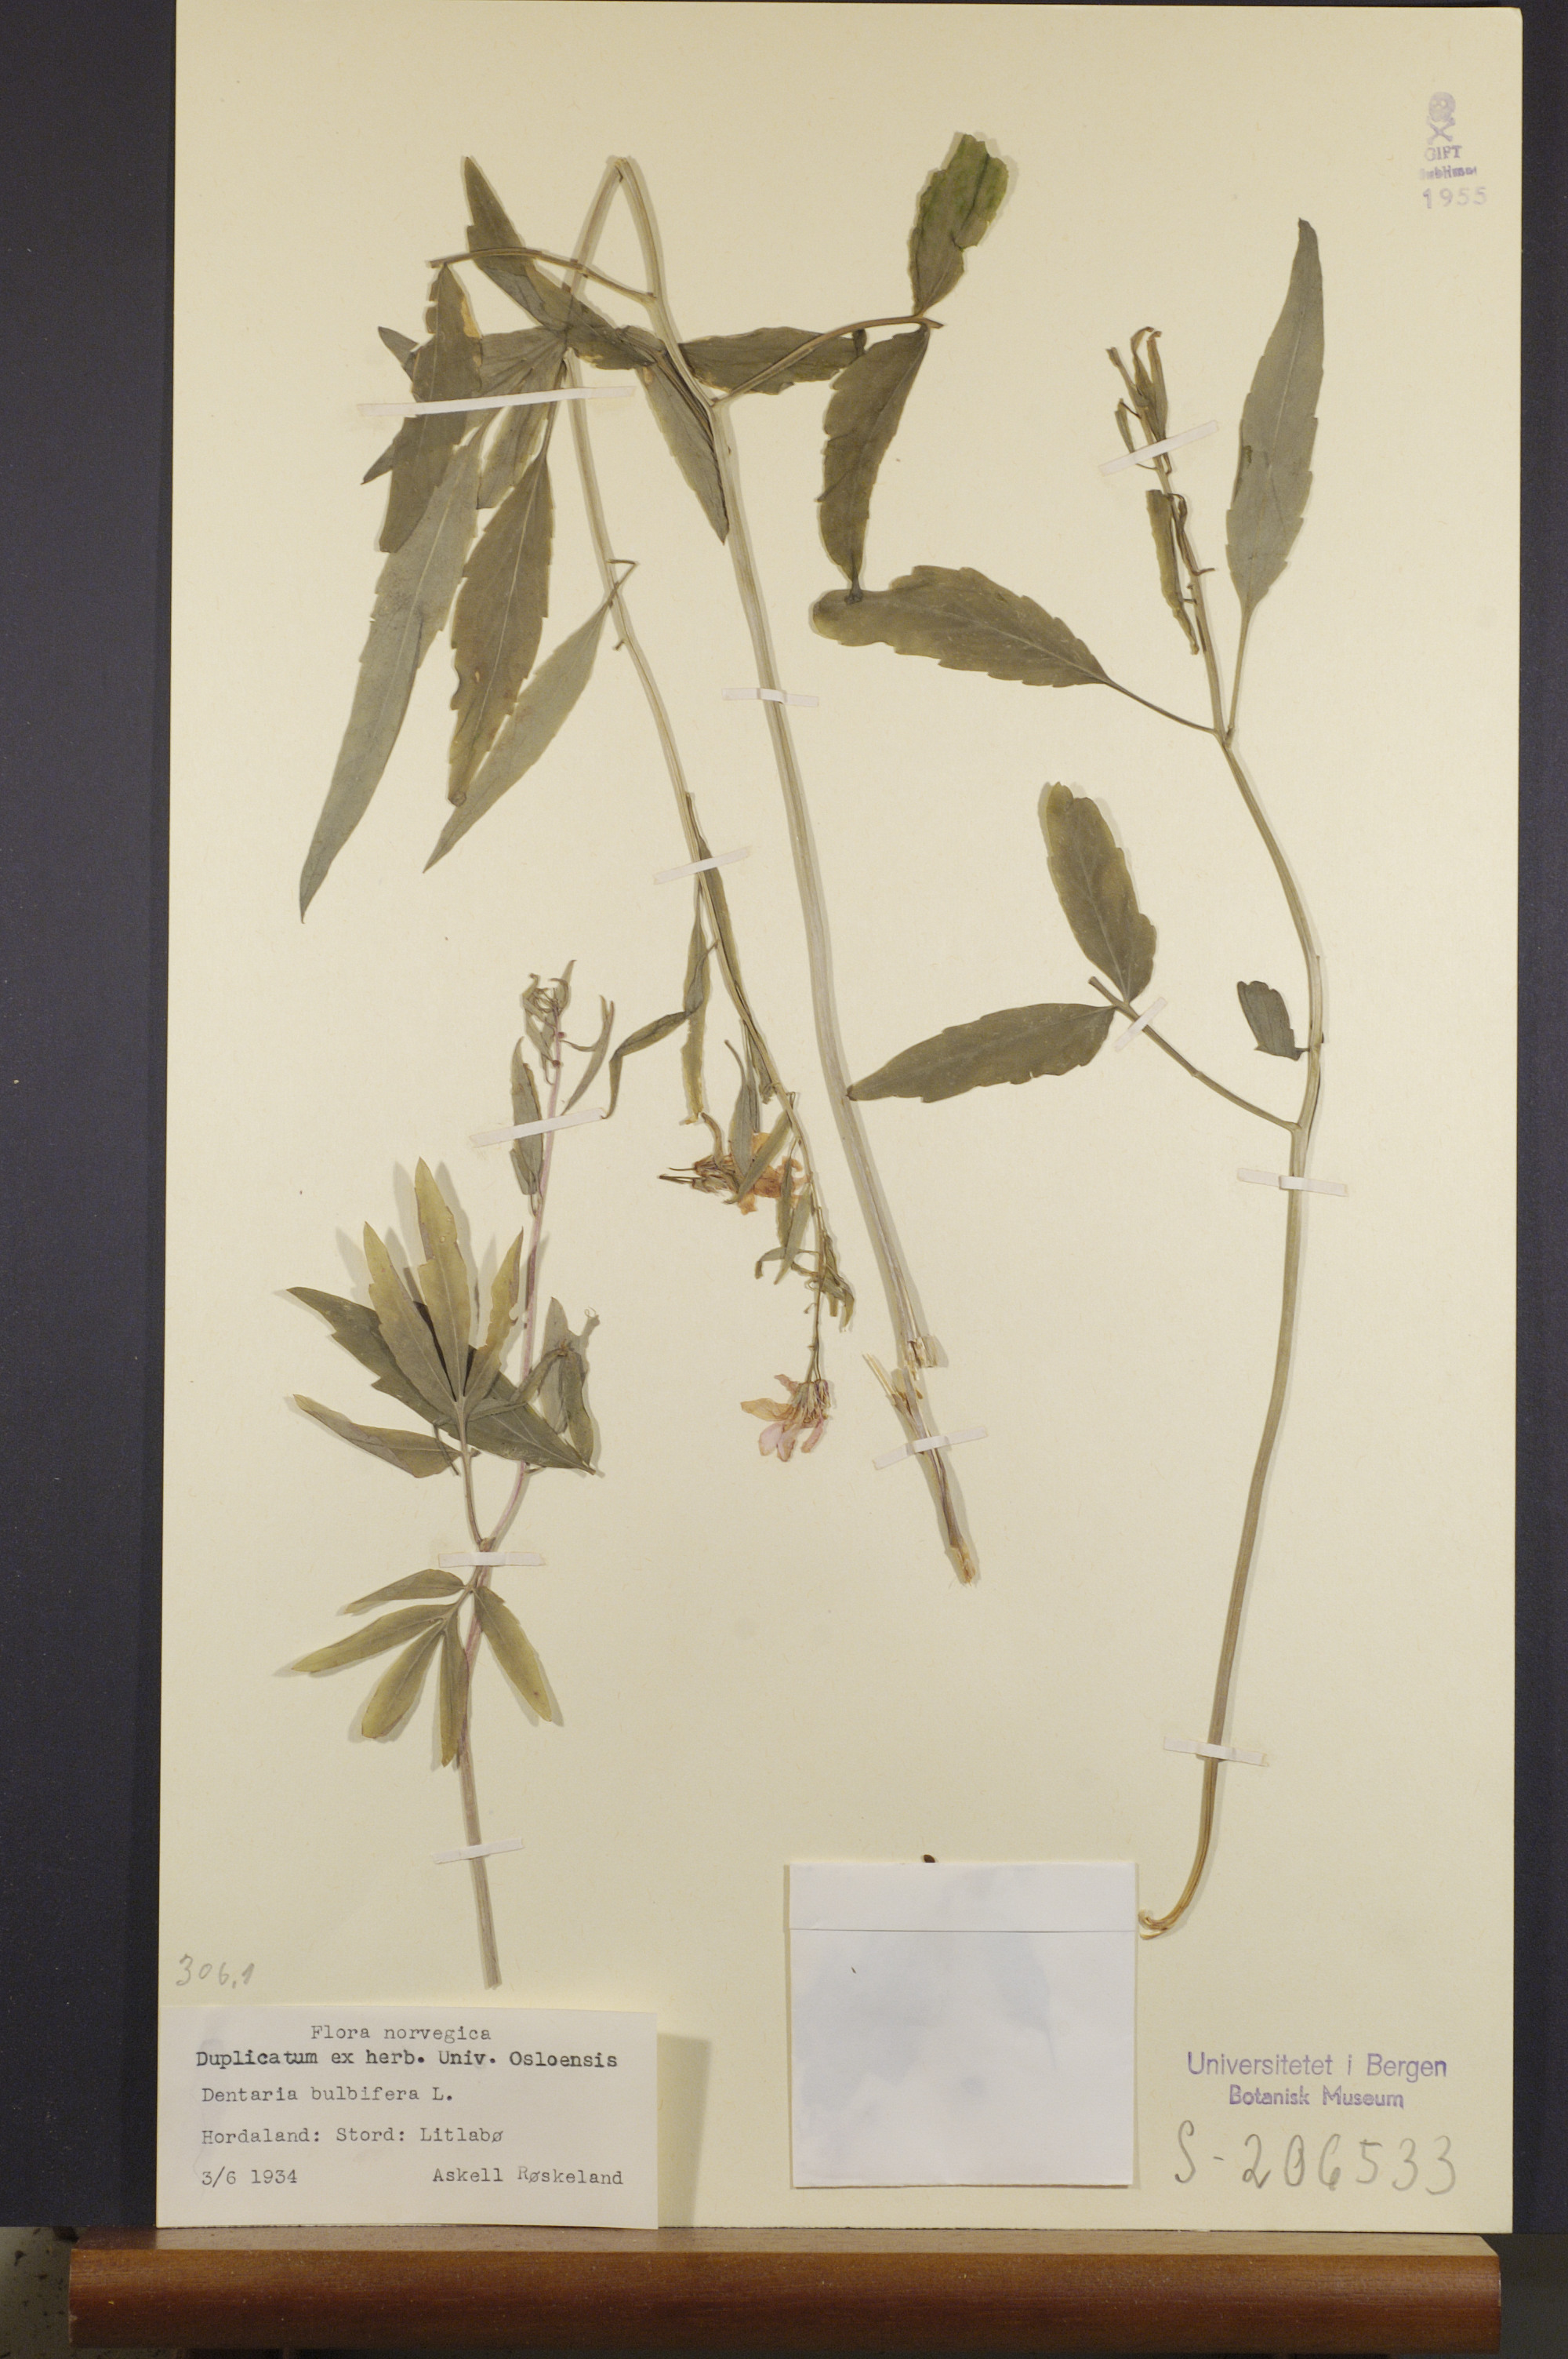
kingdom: Plantae
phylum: Tracheophyta
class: Magnoliopsida
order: Brassicales
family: Brassicaceae
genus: Cardamine
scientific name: Cardamine bulbifera
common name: Coralroot bittercress
